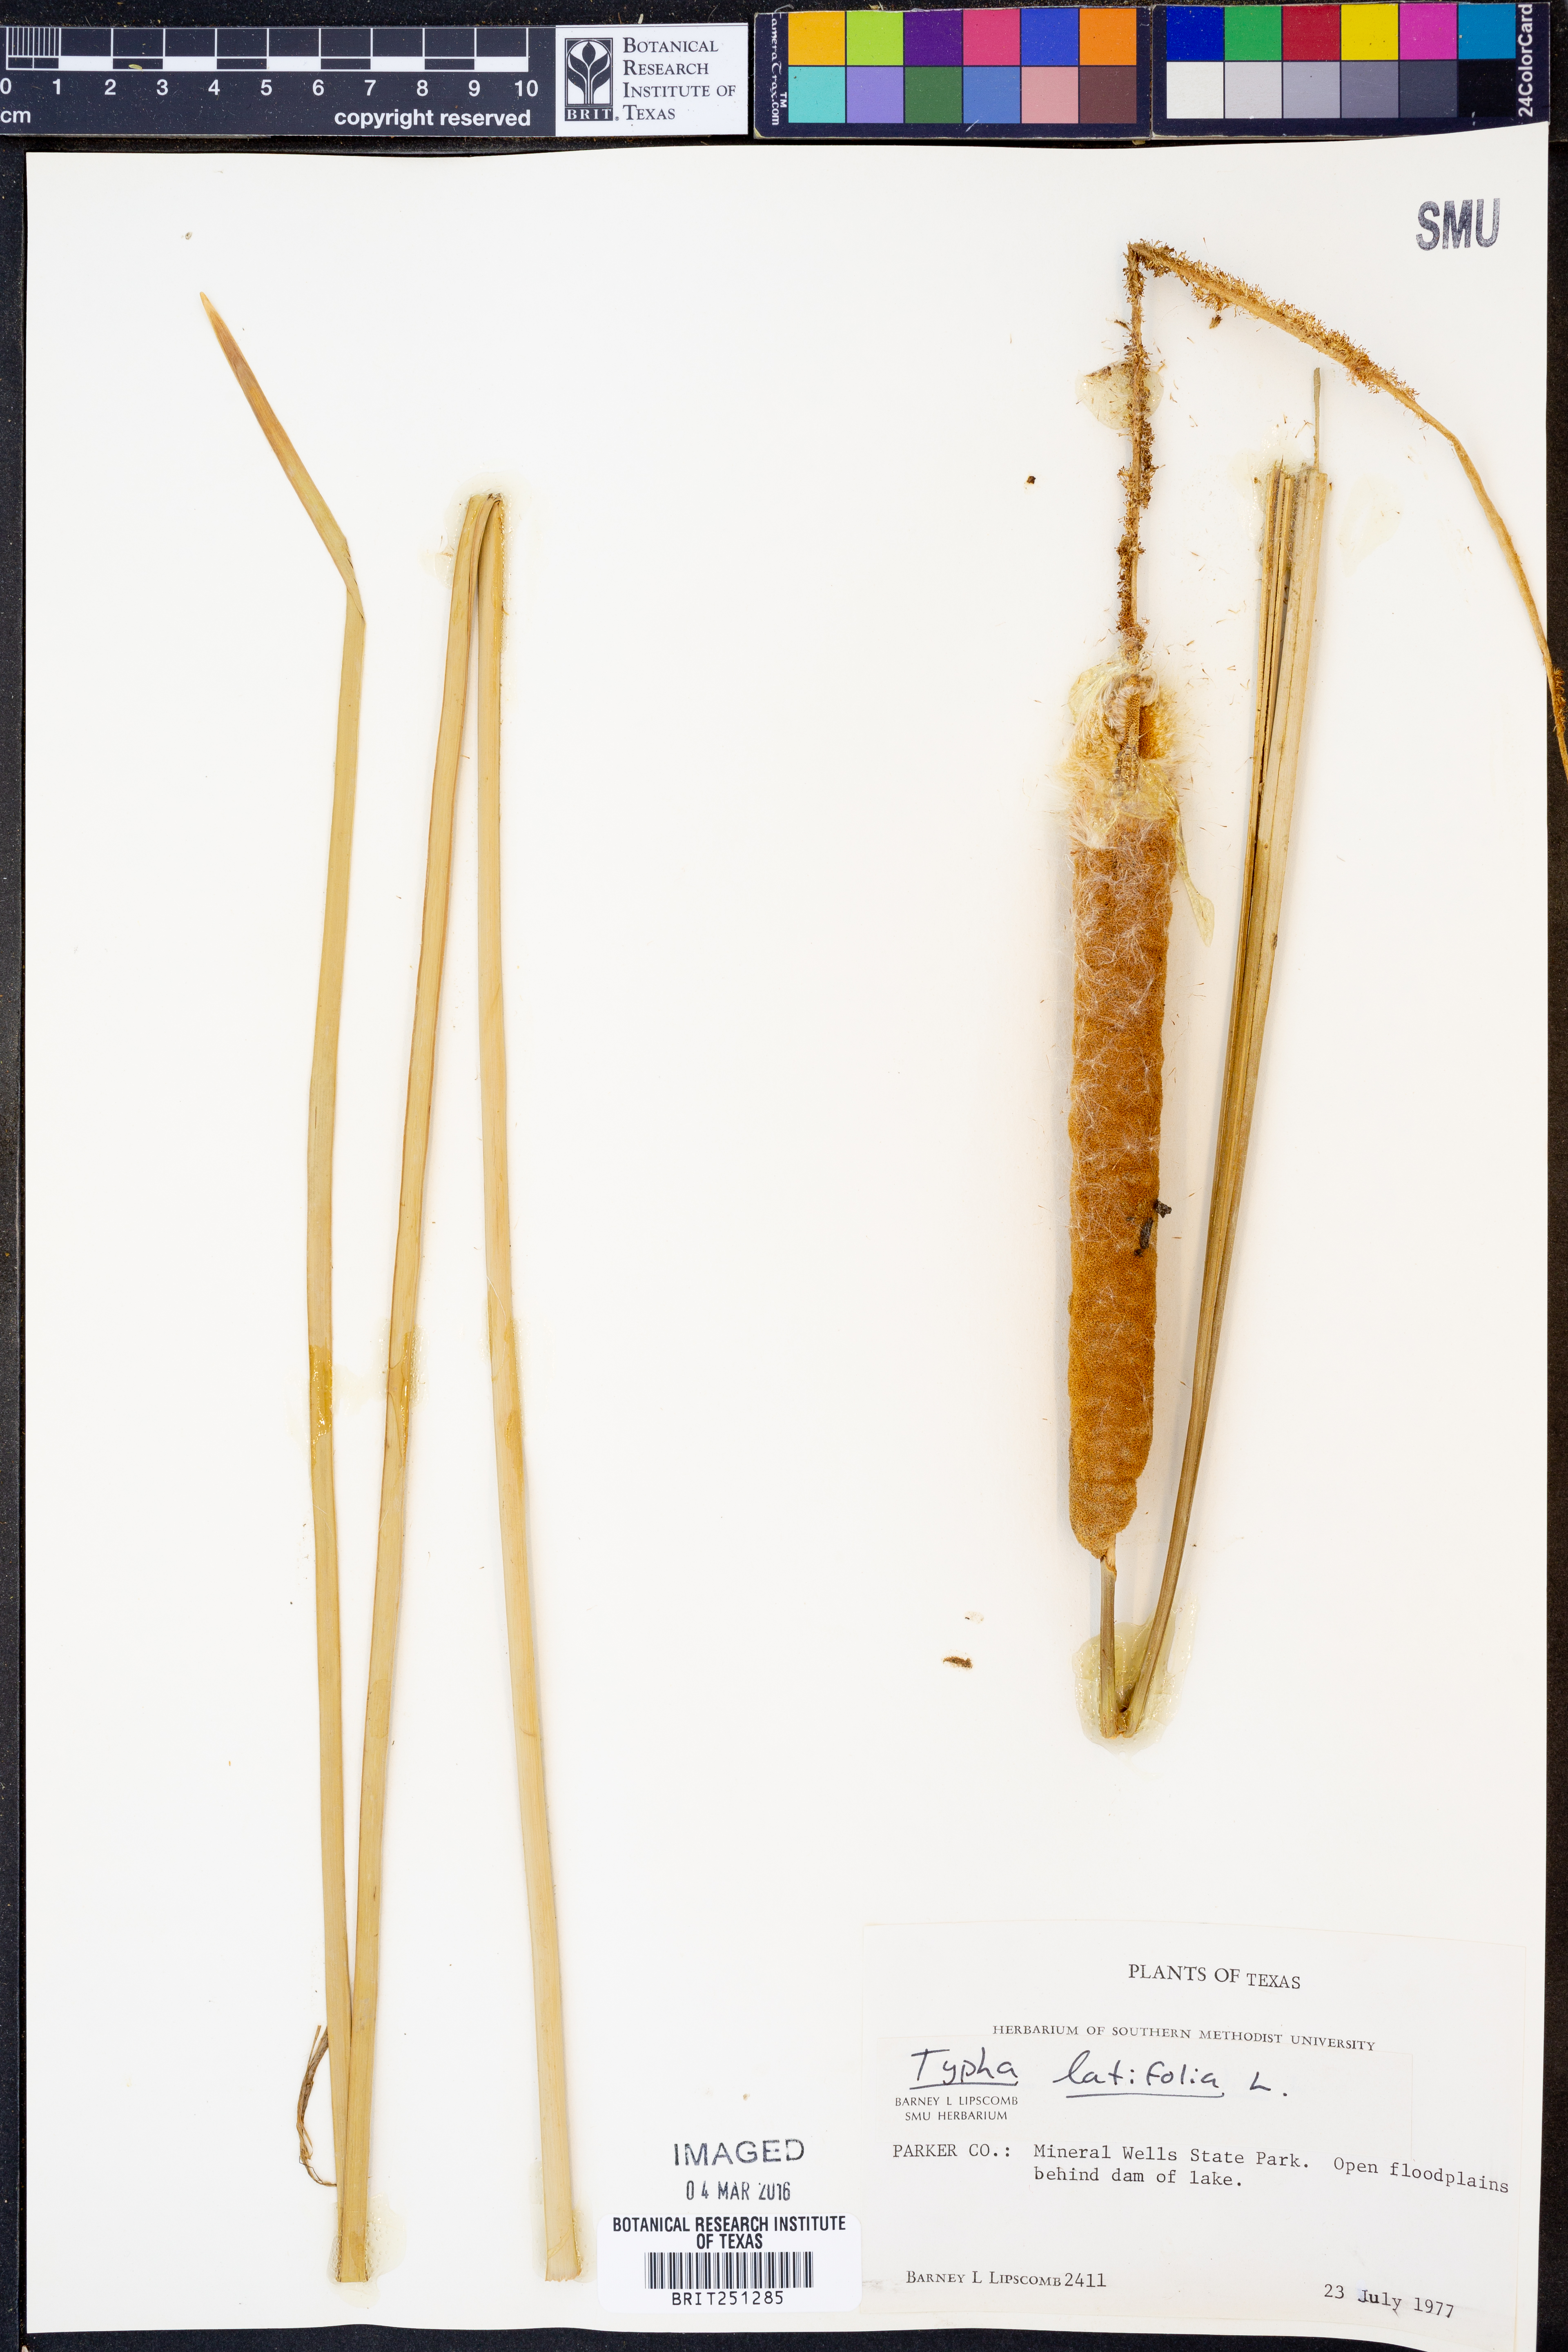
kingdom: Plantae
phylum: Tracheophyta
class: Liliopsida
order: Poales
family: Typhaceae
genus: Typha
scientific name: Typha latifolia
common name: Broadleaf cattail
